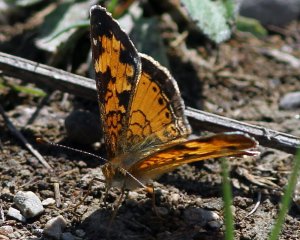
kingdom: Animalia
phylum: Arthropoda
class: Insecta
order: Lepidoptera
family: Nymphalidae
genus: Phyciodes
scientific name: Phyciodes tharos
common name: Northern Crescent
